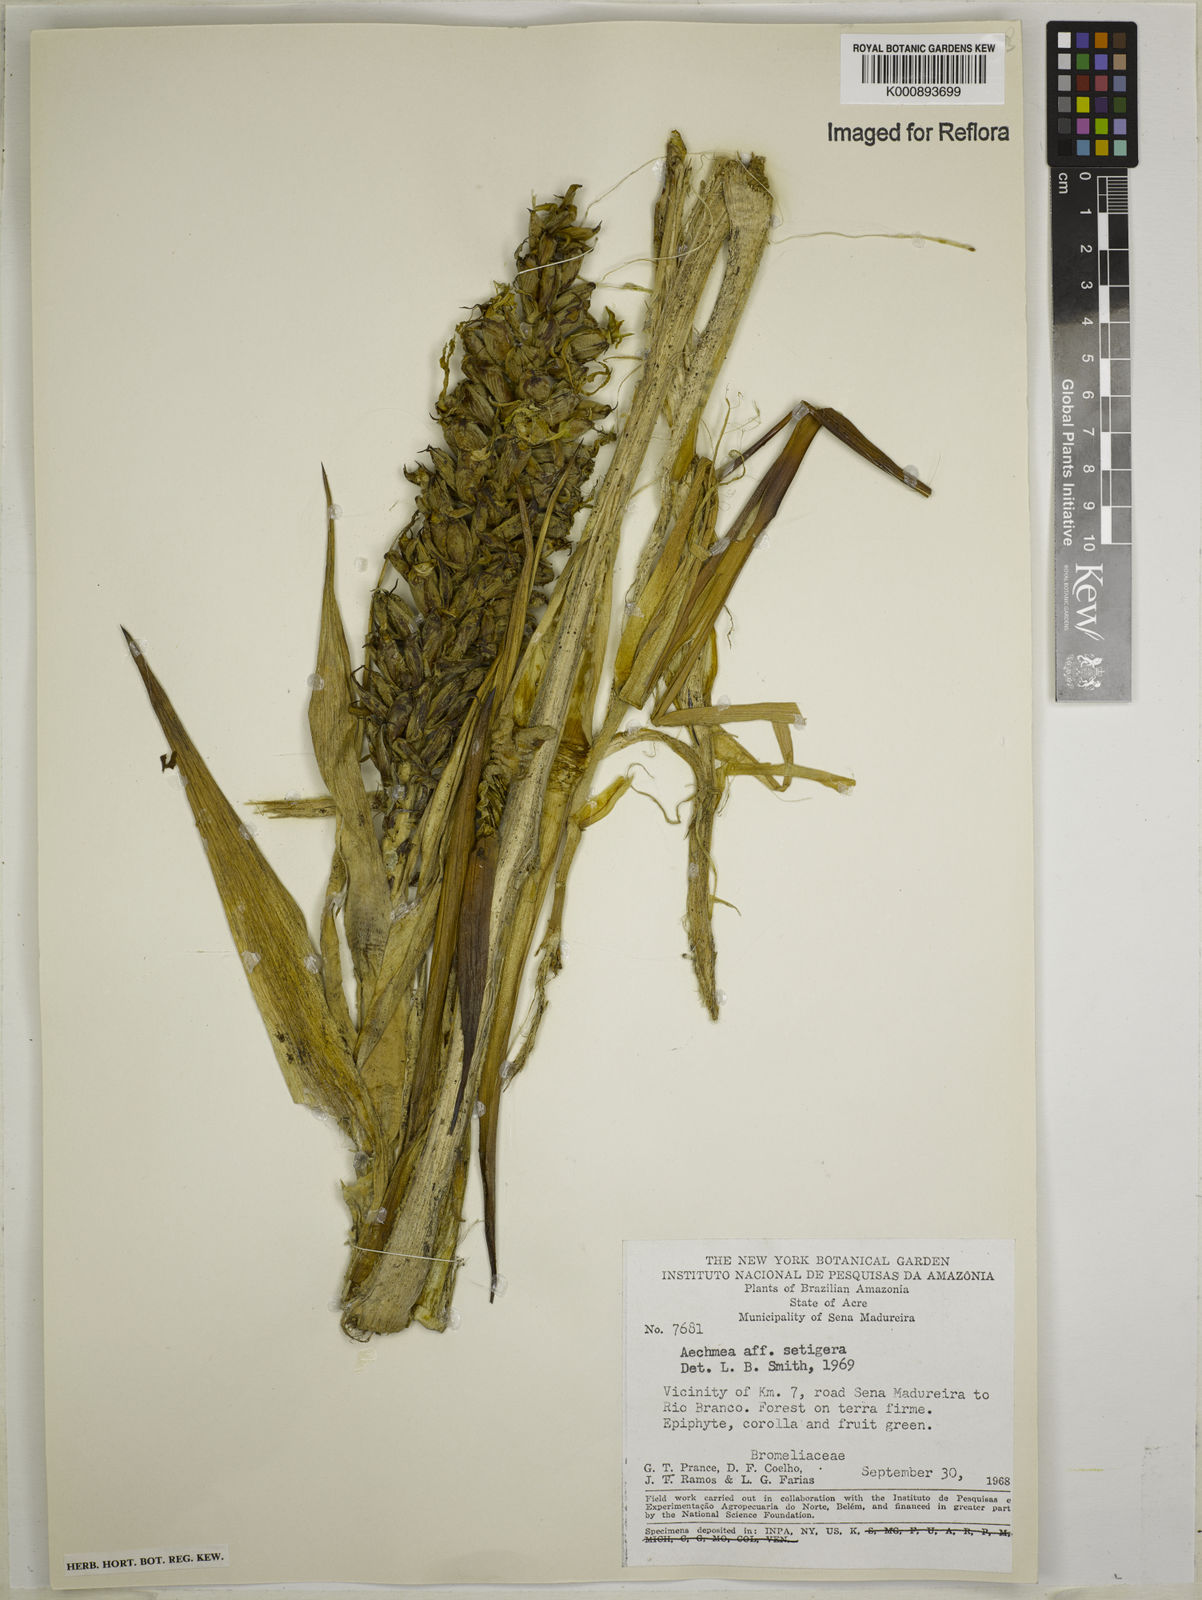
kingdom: Plantae
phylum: Tracheophyta
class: Liliopsida
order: Poales
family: Bromeliaceae
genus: Aechmea
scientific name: Aechmea setigera
